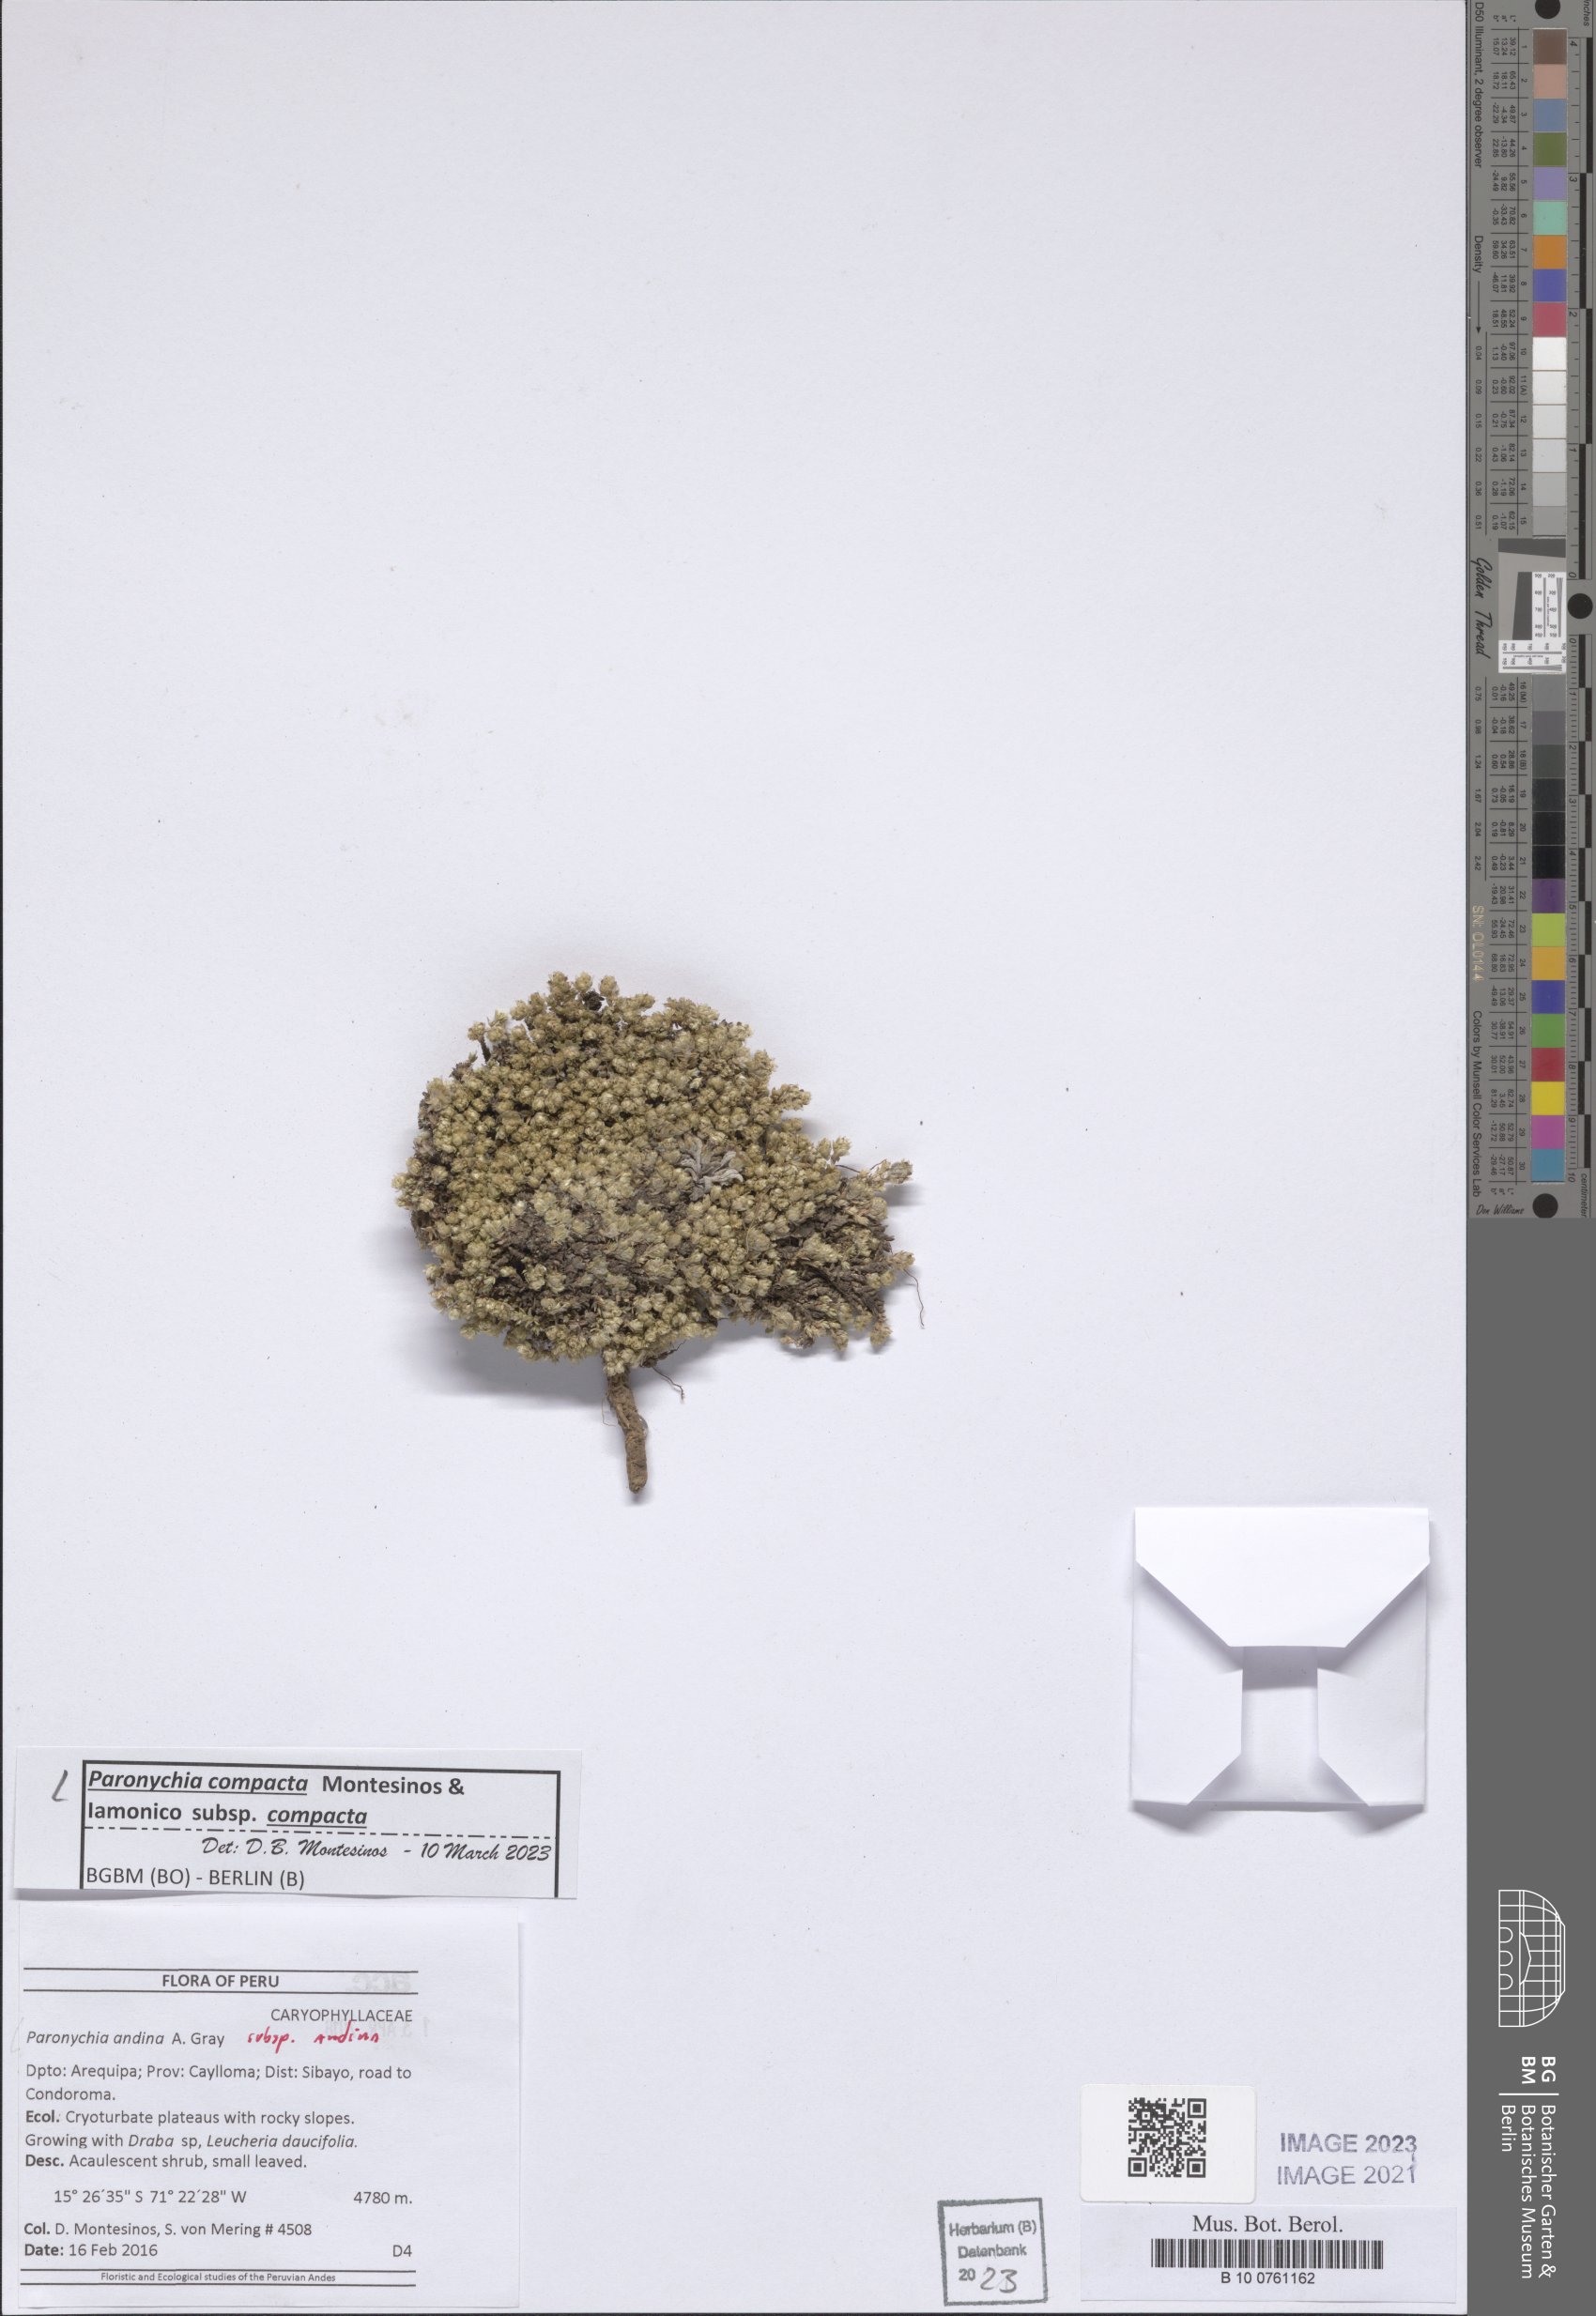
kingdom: Plantae
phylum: Tracheophyta
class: Magnoliopsida
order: Caryophyllales
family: Caryophyllaceae
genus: Paronychia
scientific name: Paronychia
